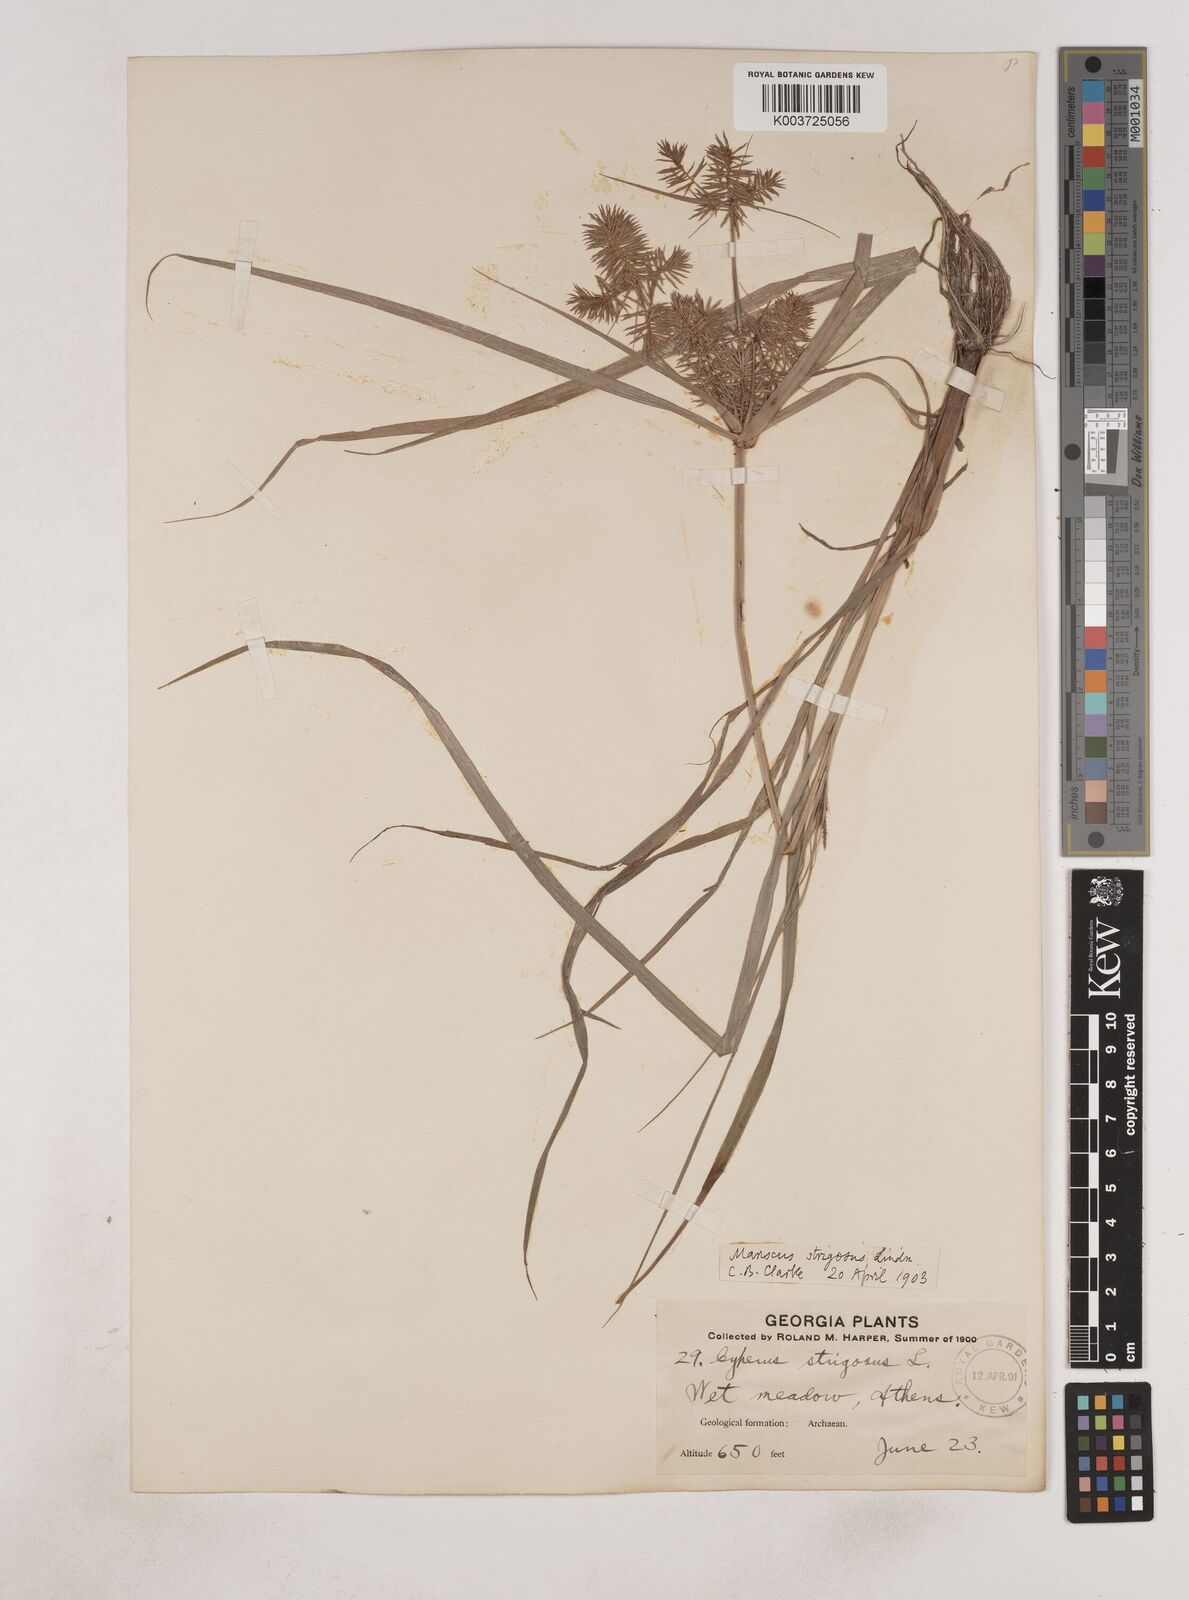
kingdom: Plantae
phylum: Tracheophyta
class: Liliopsida
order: Poales
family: Cyperaceae
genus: Cyperus
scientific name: Cyperus strigosus
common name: False nutsedge
